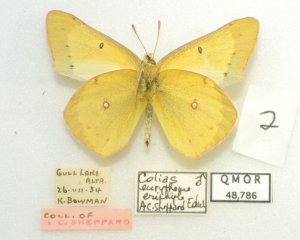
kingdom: Animalia
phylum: Arthropoda
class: Insecta
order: Lepidoptera
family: Pieridae
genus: Colias
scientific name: Colias philodice
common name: Clouded Sulphur
